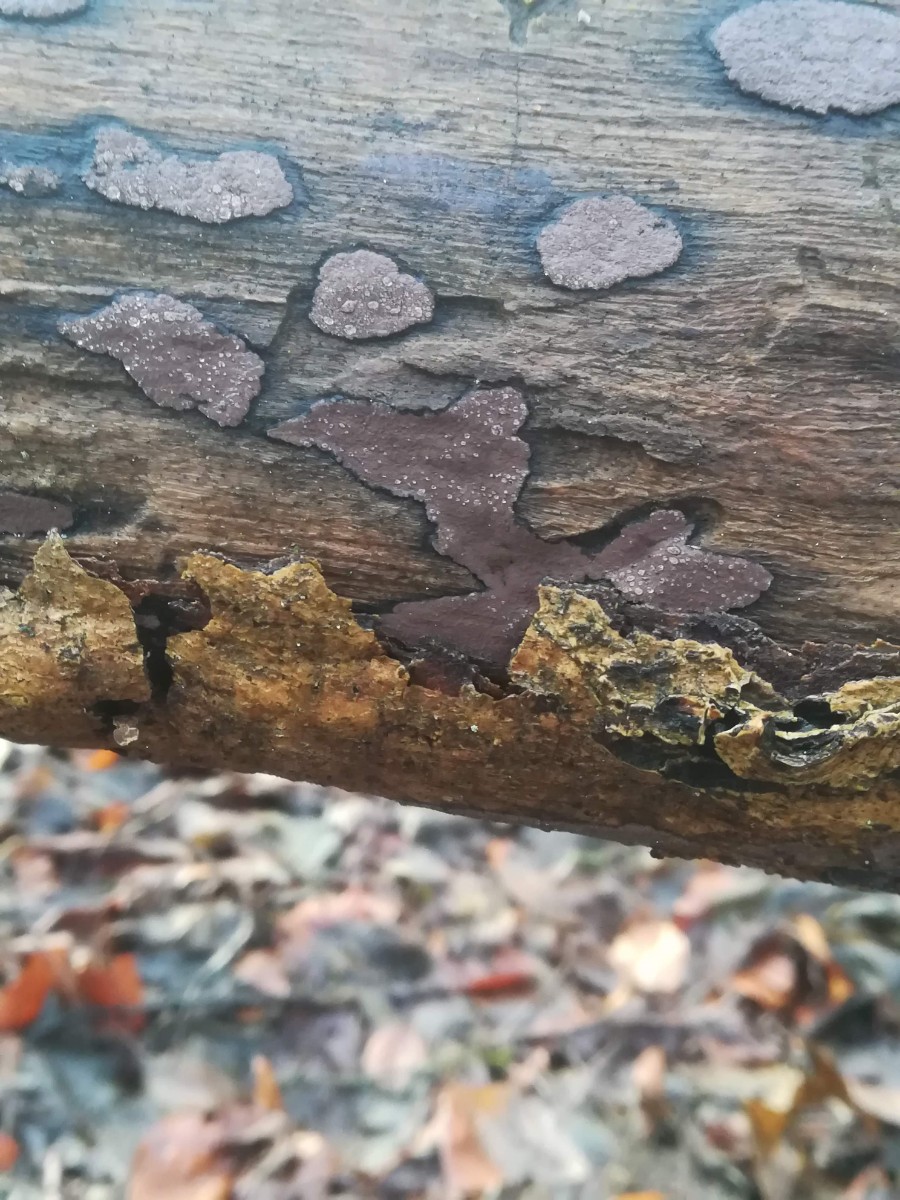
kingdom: Fungi
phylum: Ascomycota
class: Sordariomycetes
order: Xylariales
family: Hypoxylaceae
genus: Hypoxylon
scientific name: Hypoxylon petriniae
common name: nedsænket kulbær
